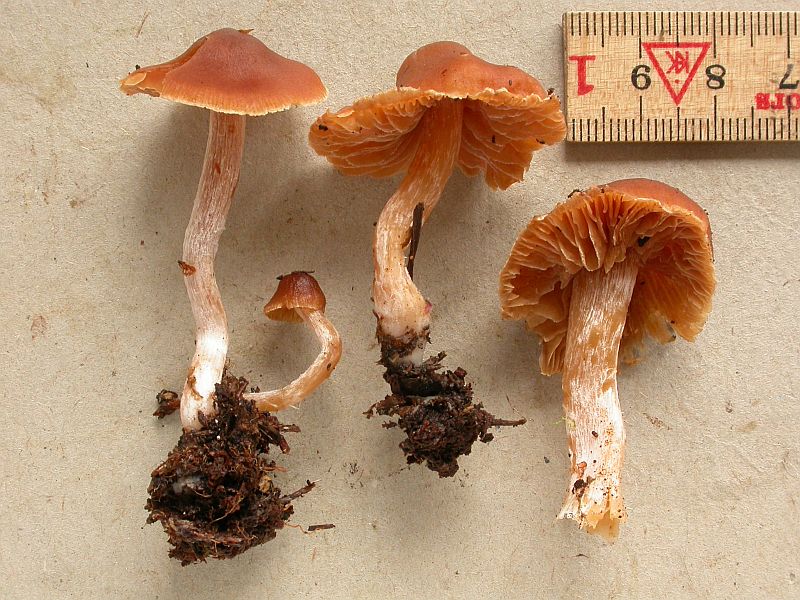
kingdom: Fungi
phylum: Basidiomycota
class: Agaricomycetes
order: Agaricales
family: Cortinariaceae
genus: Cortinarius
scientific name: Cortinarius
